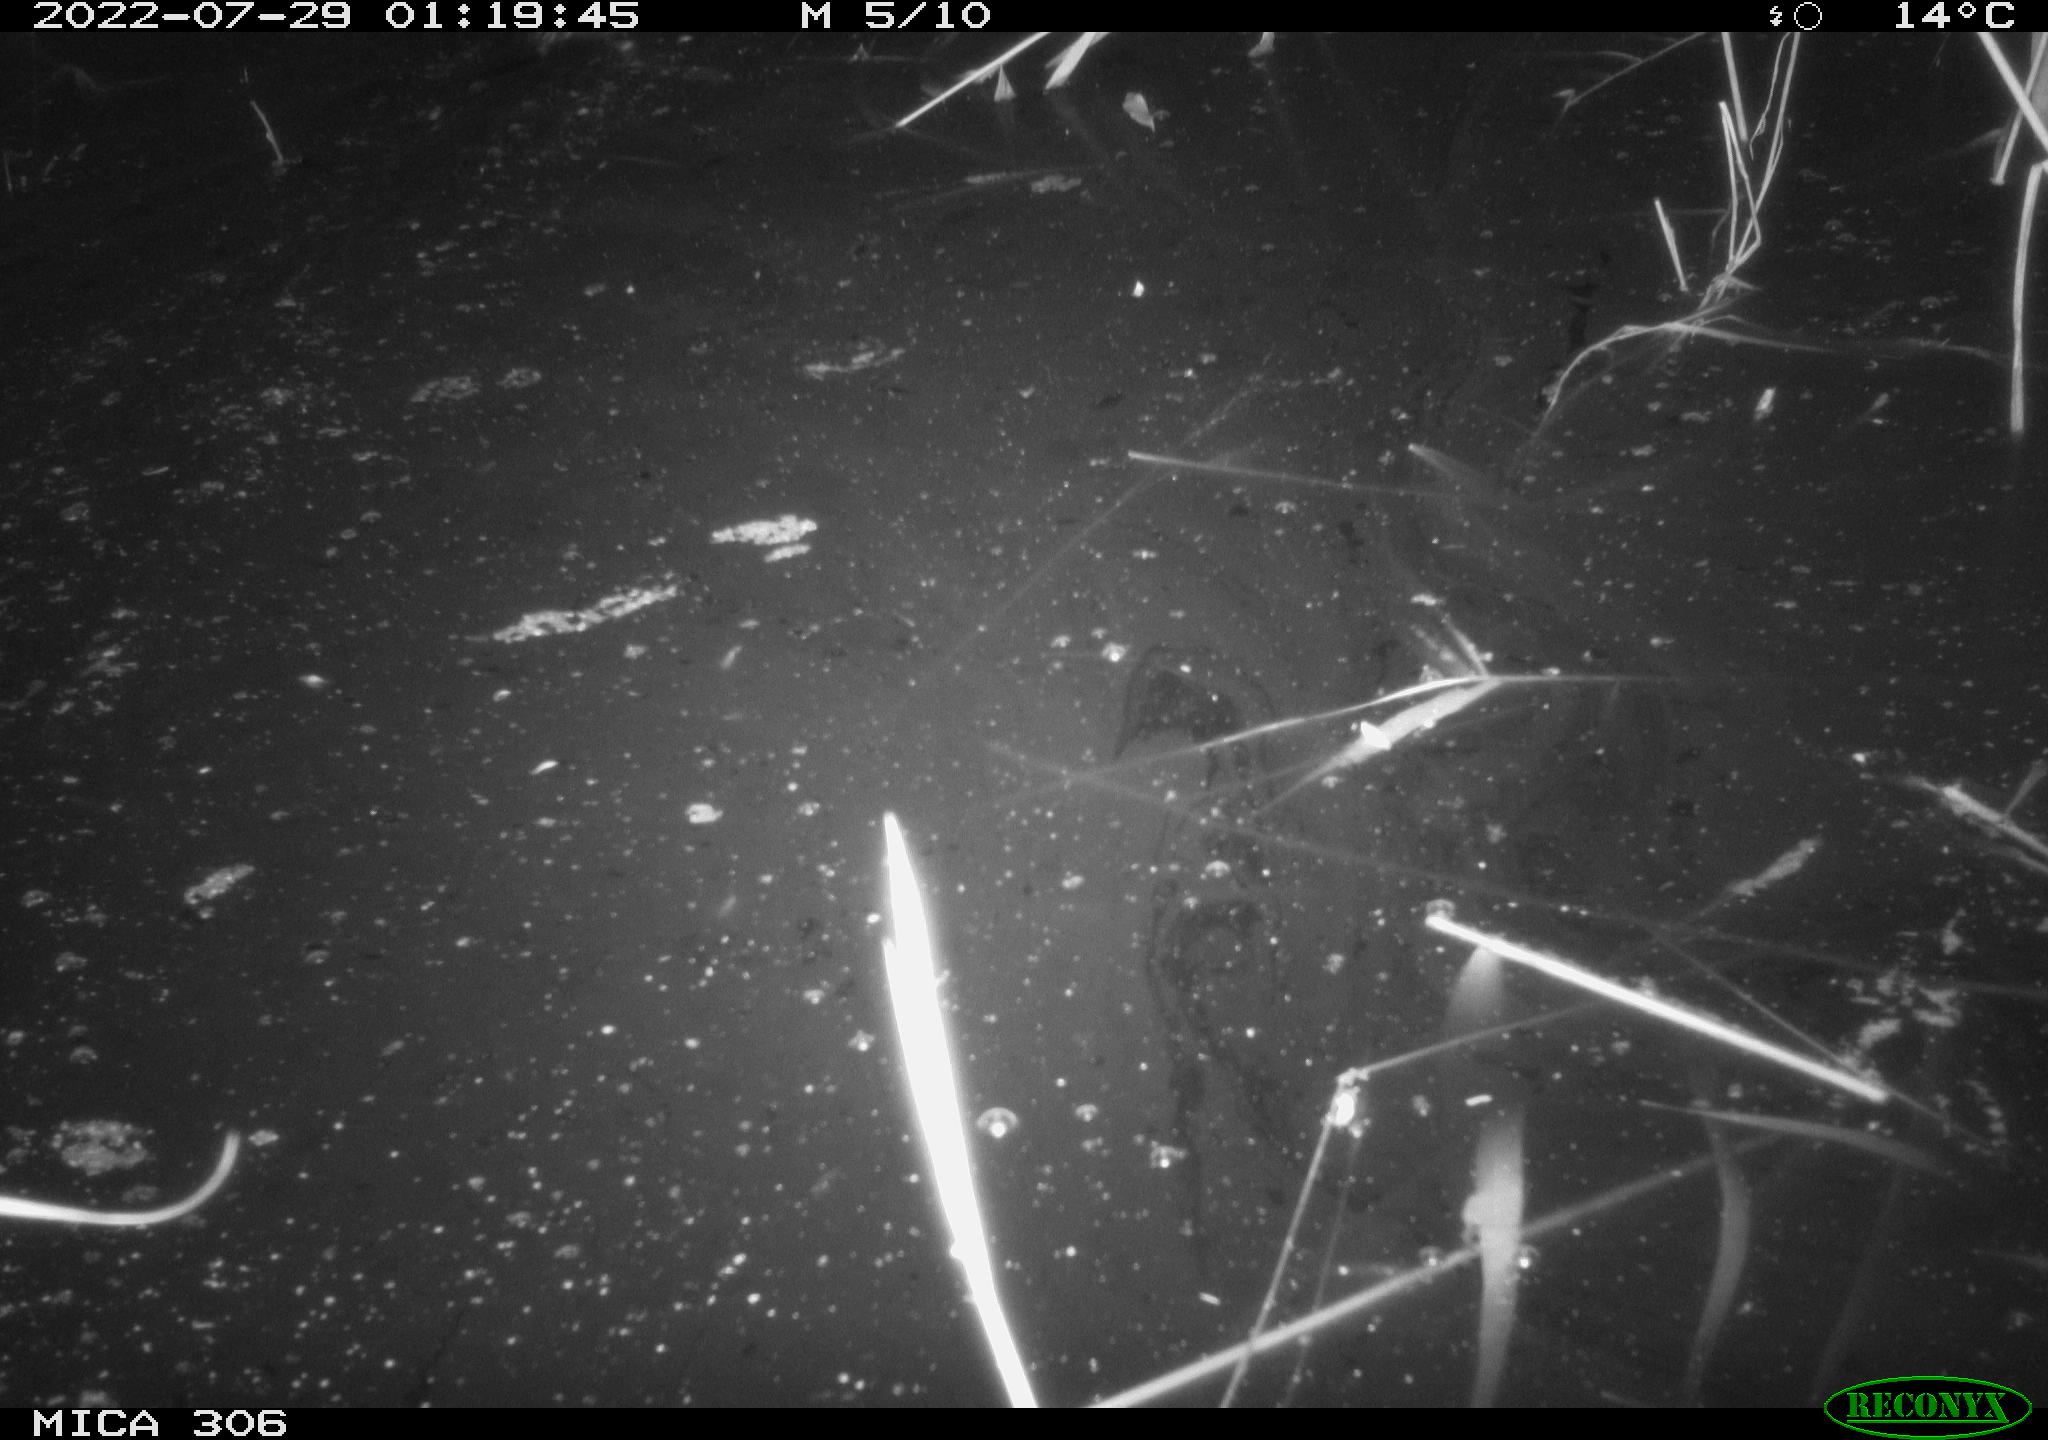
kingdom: Animalia
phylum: Chordata
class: Mammalia
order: Rodentia
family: Cricetidae
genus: Ondatra
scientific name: Ondatra zibethicus
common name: Muskrat
